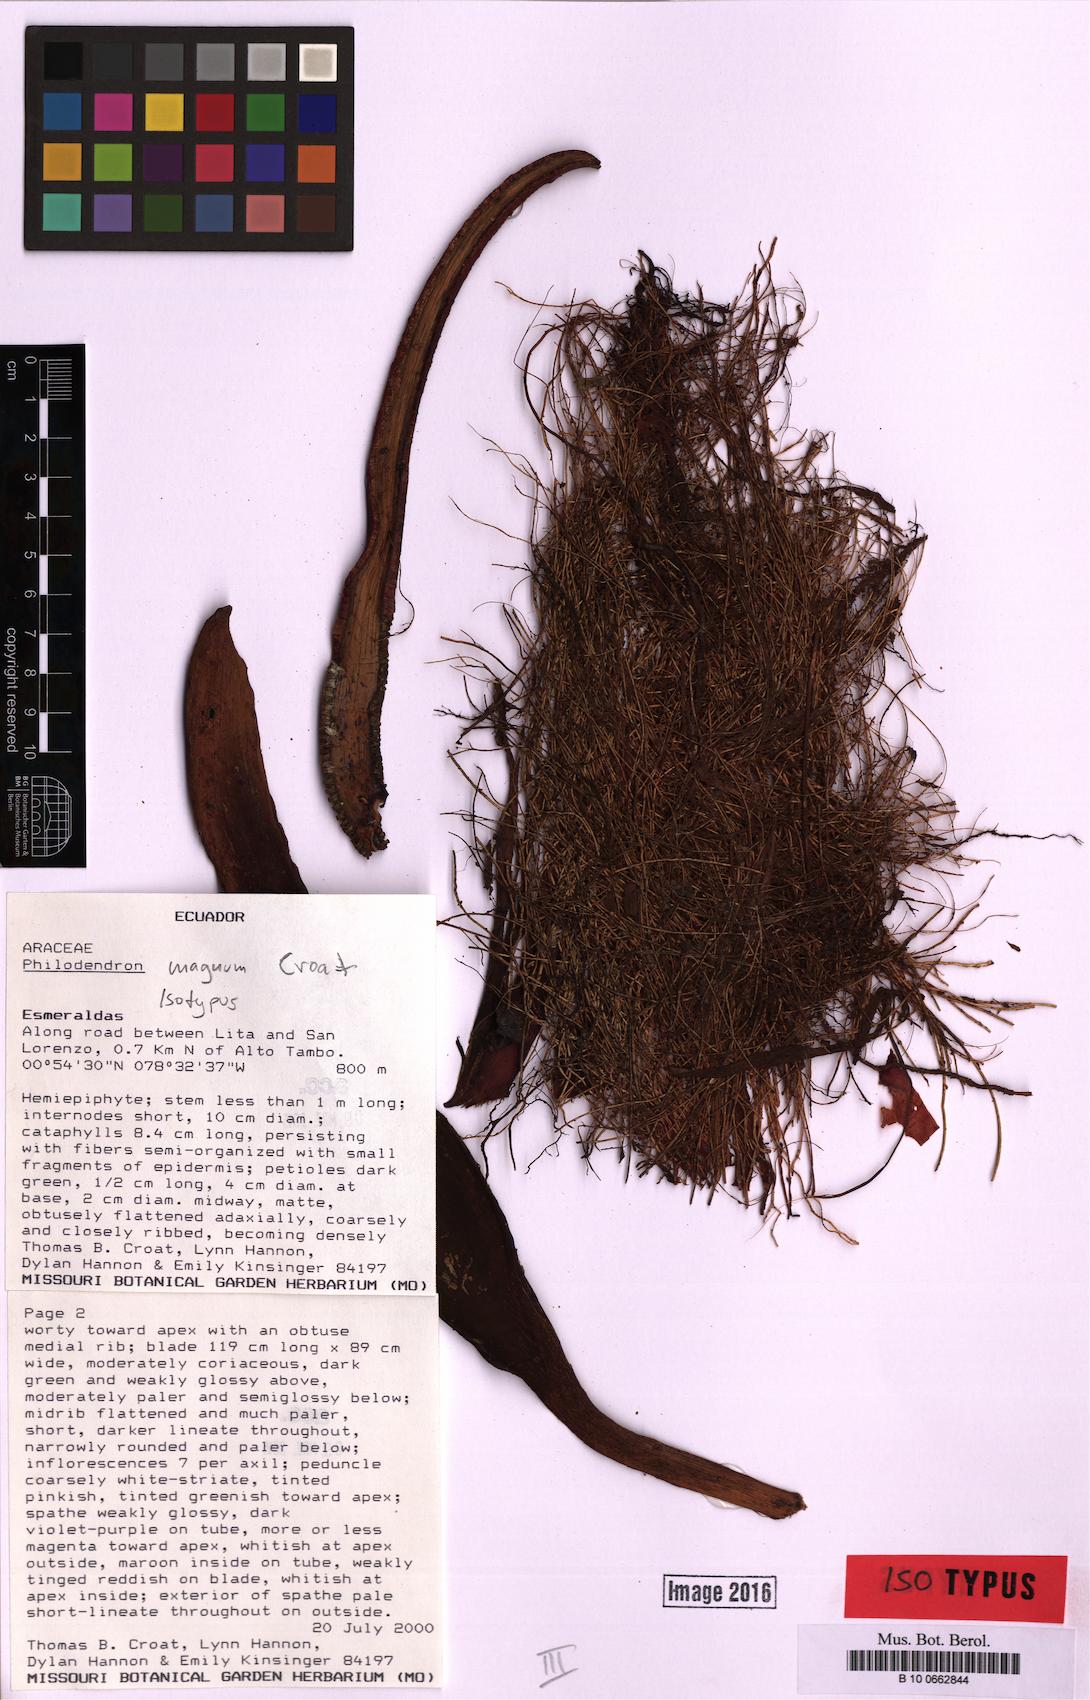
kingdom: Plantae
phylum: Tracheophyta
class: Liliopsida
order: Alismatales
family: Araceae
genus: Philodendron
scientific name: Philodendron magnum
